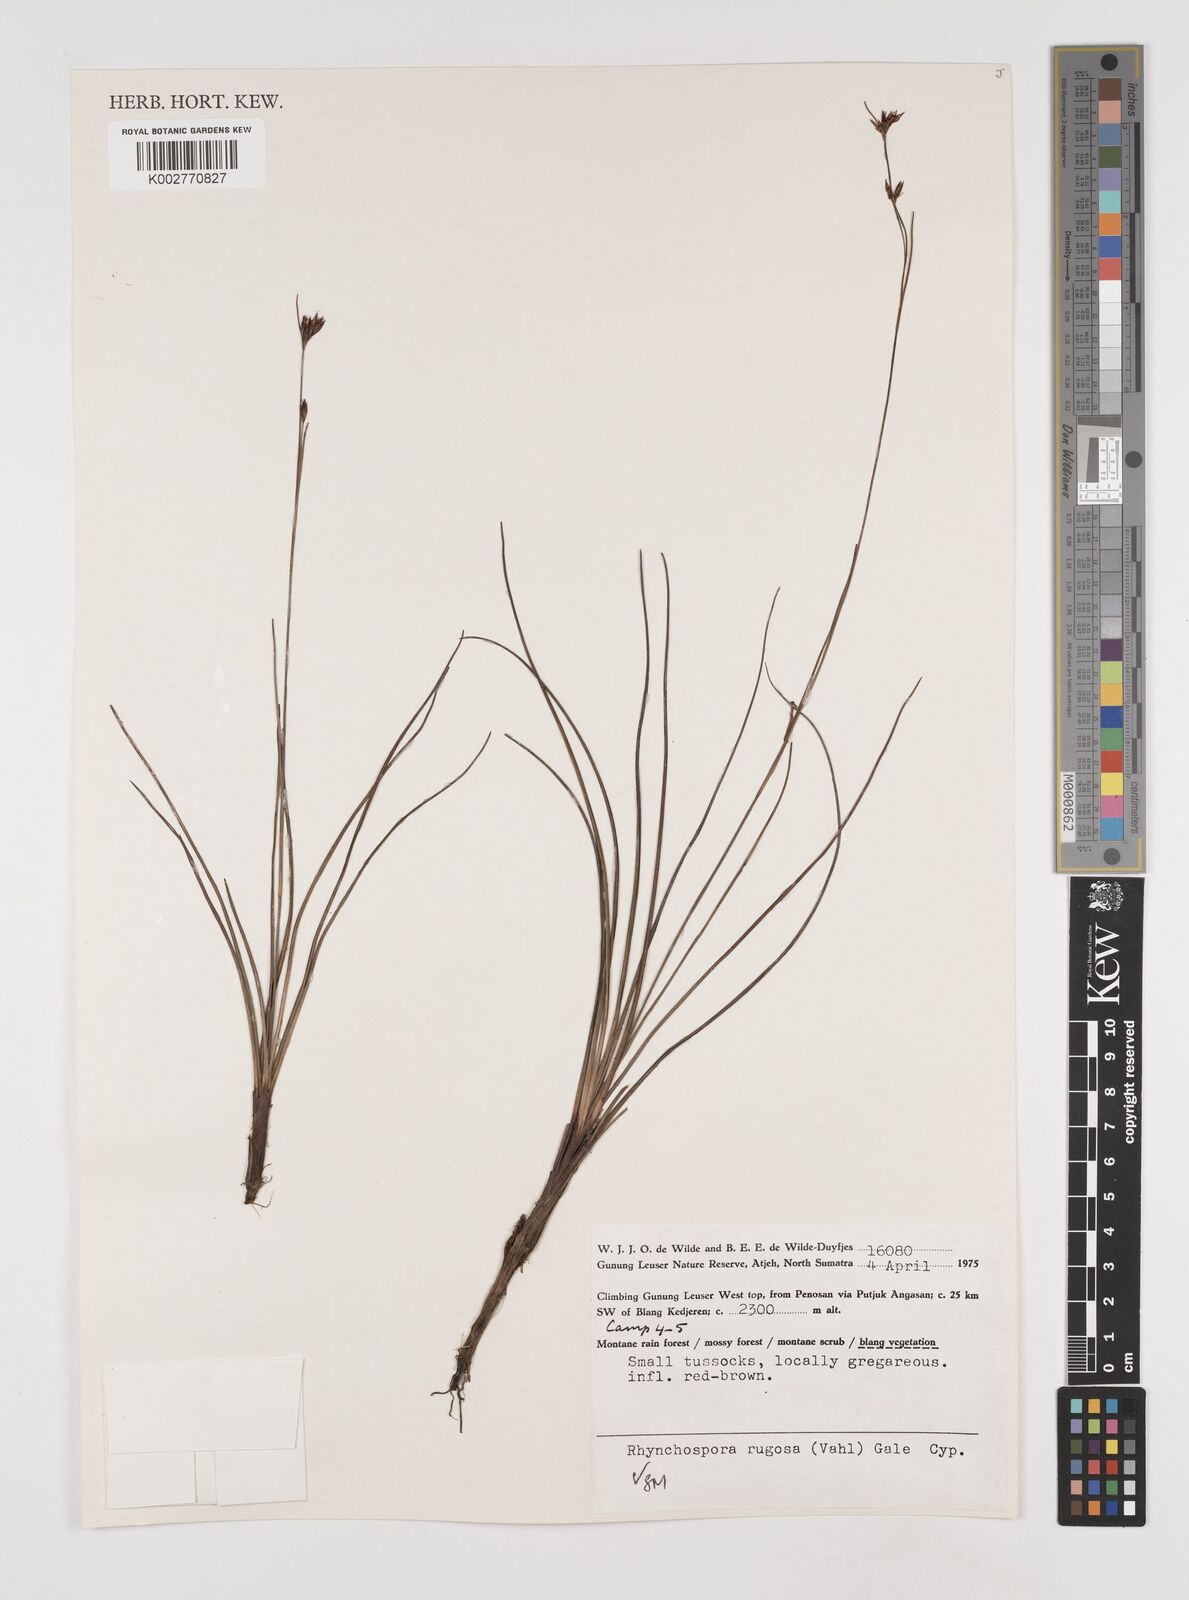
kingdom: Plantae
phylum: Tracheophyta
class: Liliopsida
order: Poales
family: Cyperaceae
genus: Rhynchospora
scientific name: Rhynchospora rugosa
